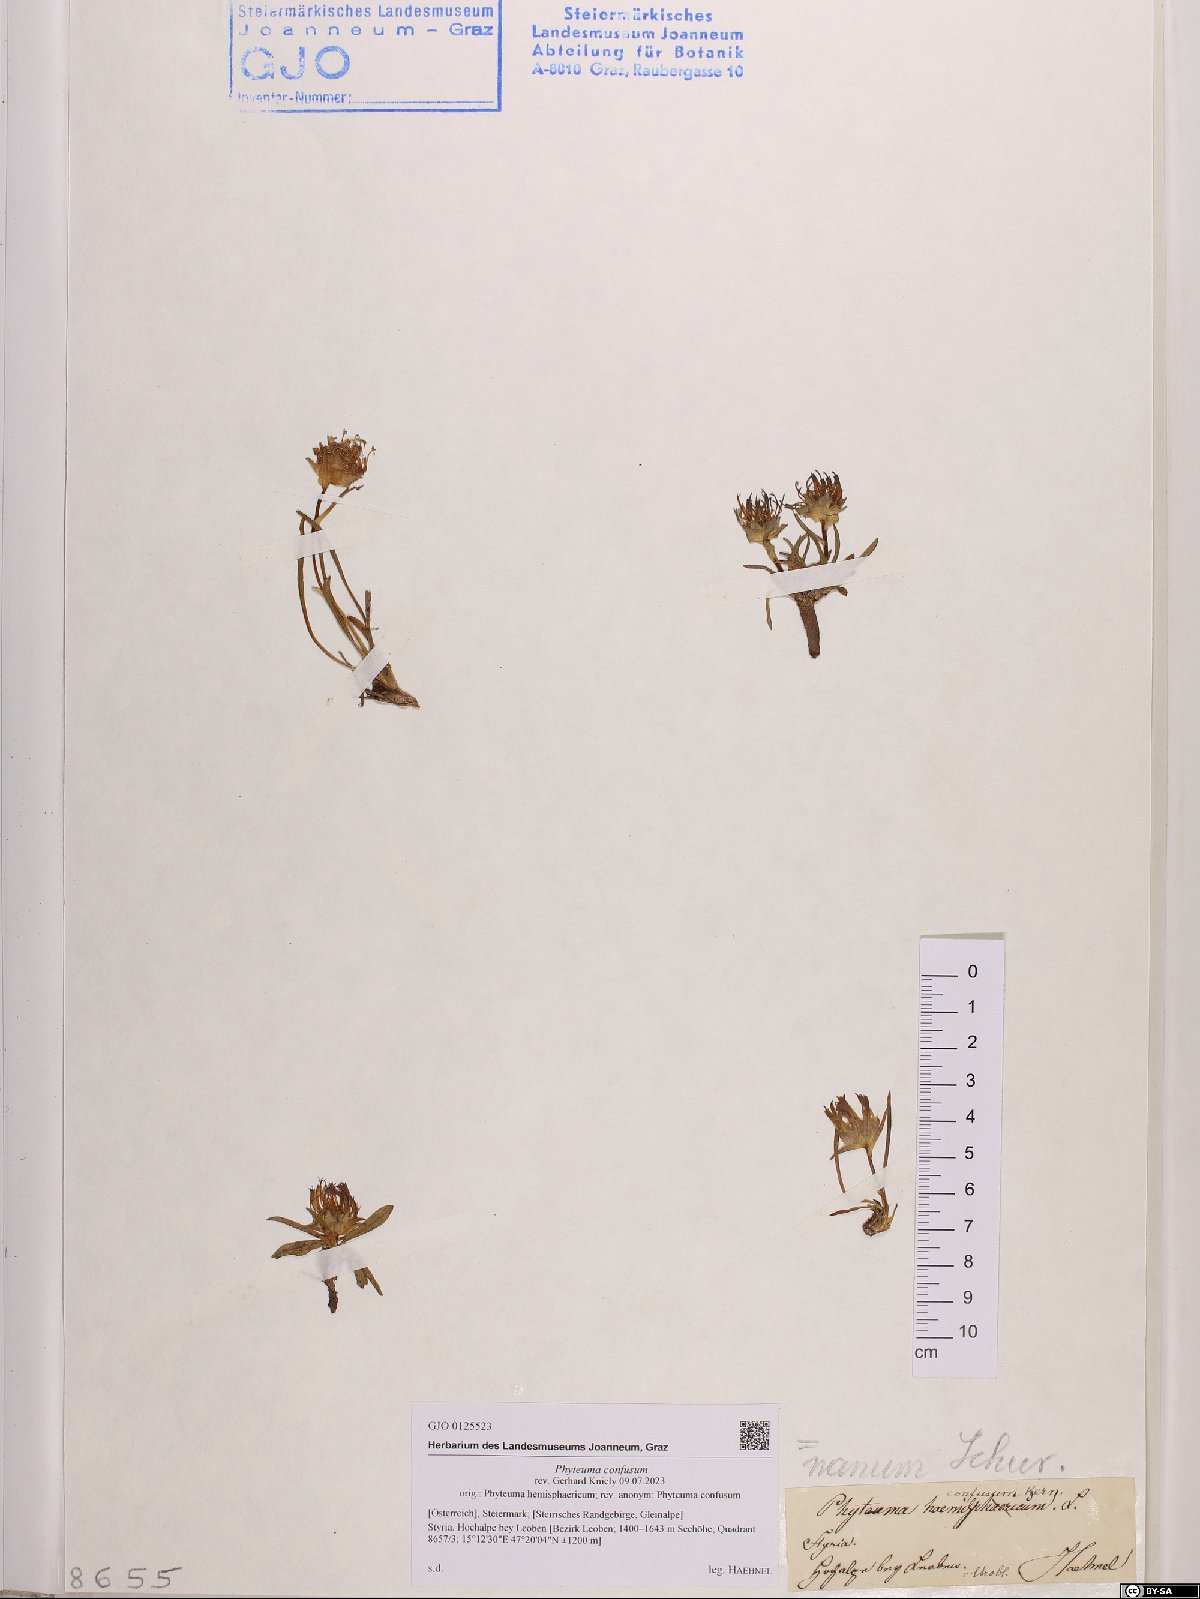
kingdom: Plantae
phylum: Tracheophyta
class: Magnoliopsida
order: Asterales
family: Campanulaceae
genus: Phyteuma
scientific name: Phyteuma confusum
